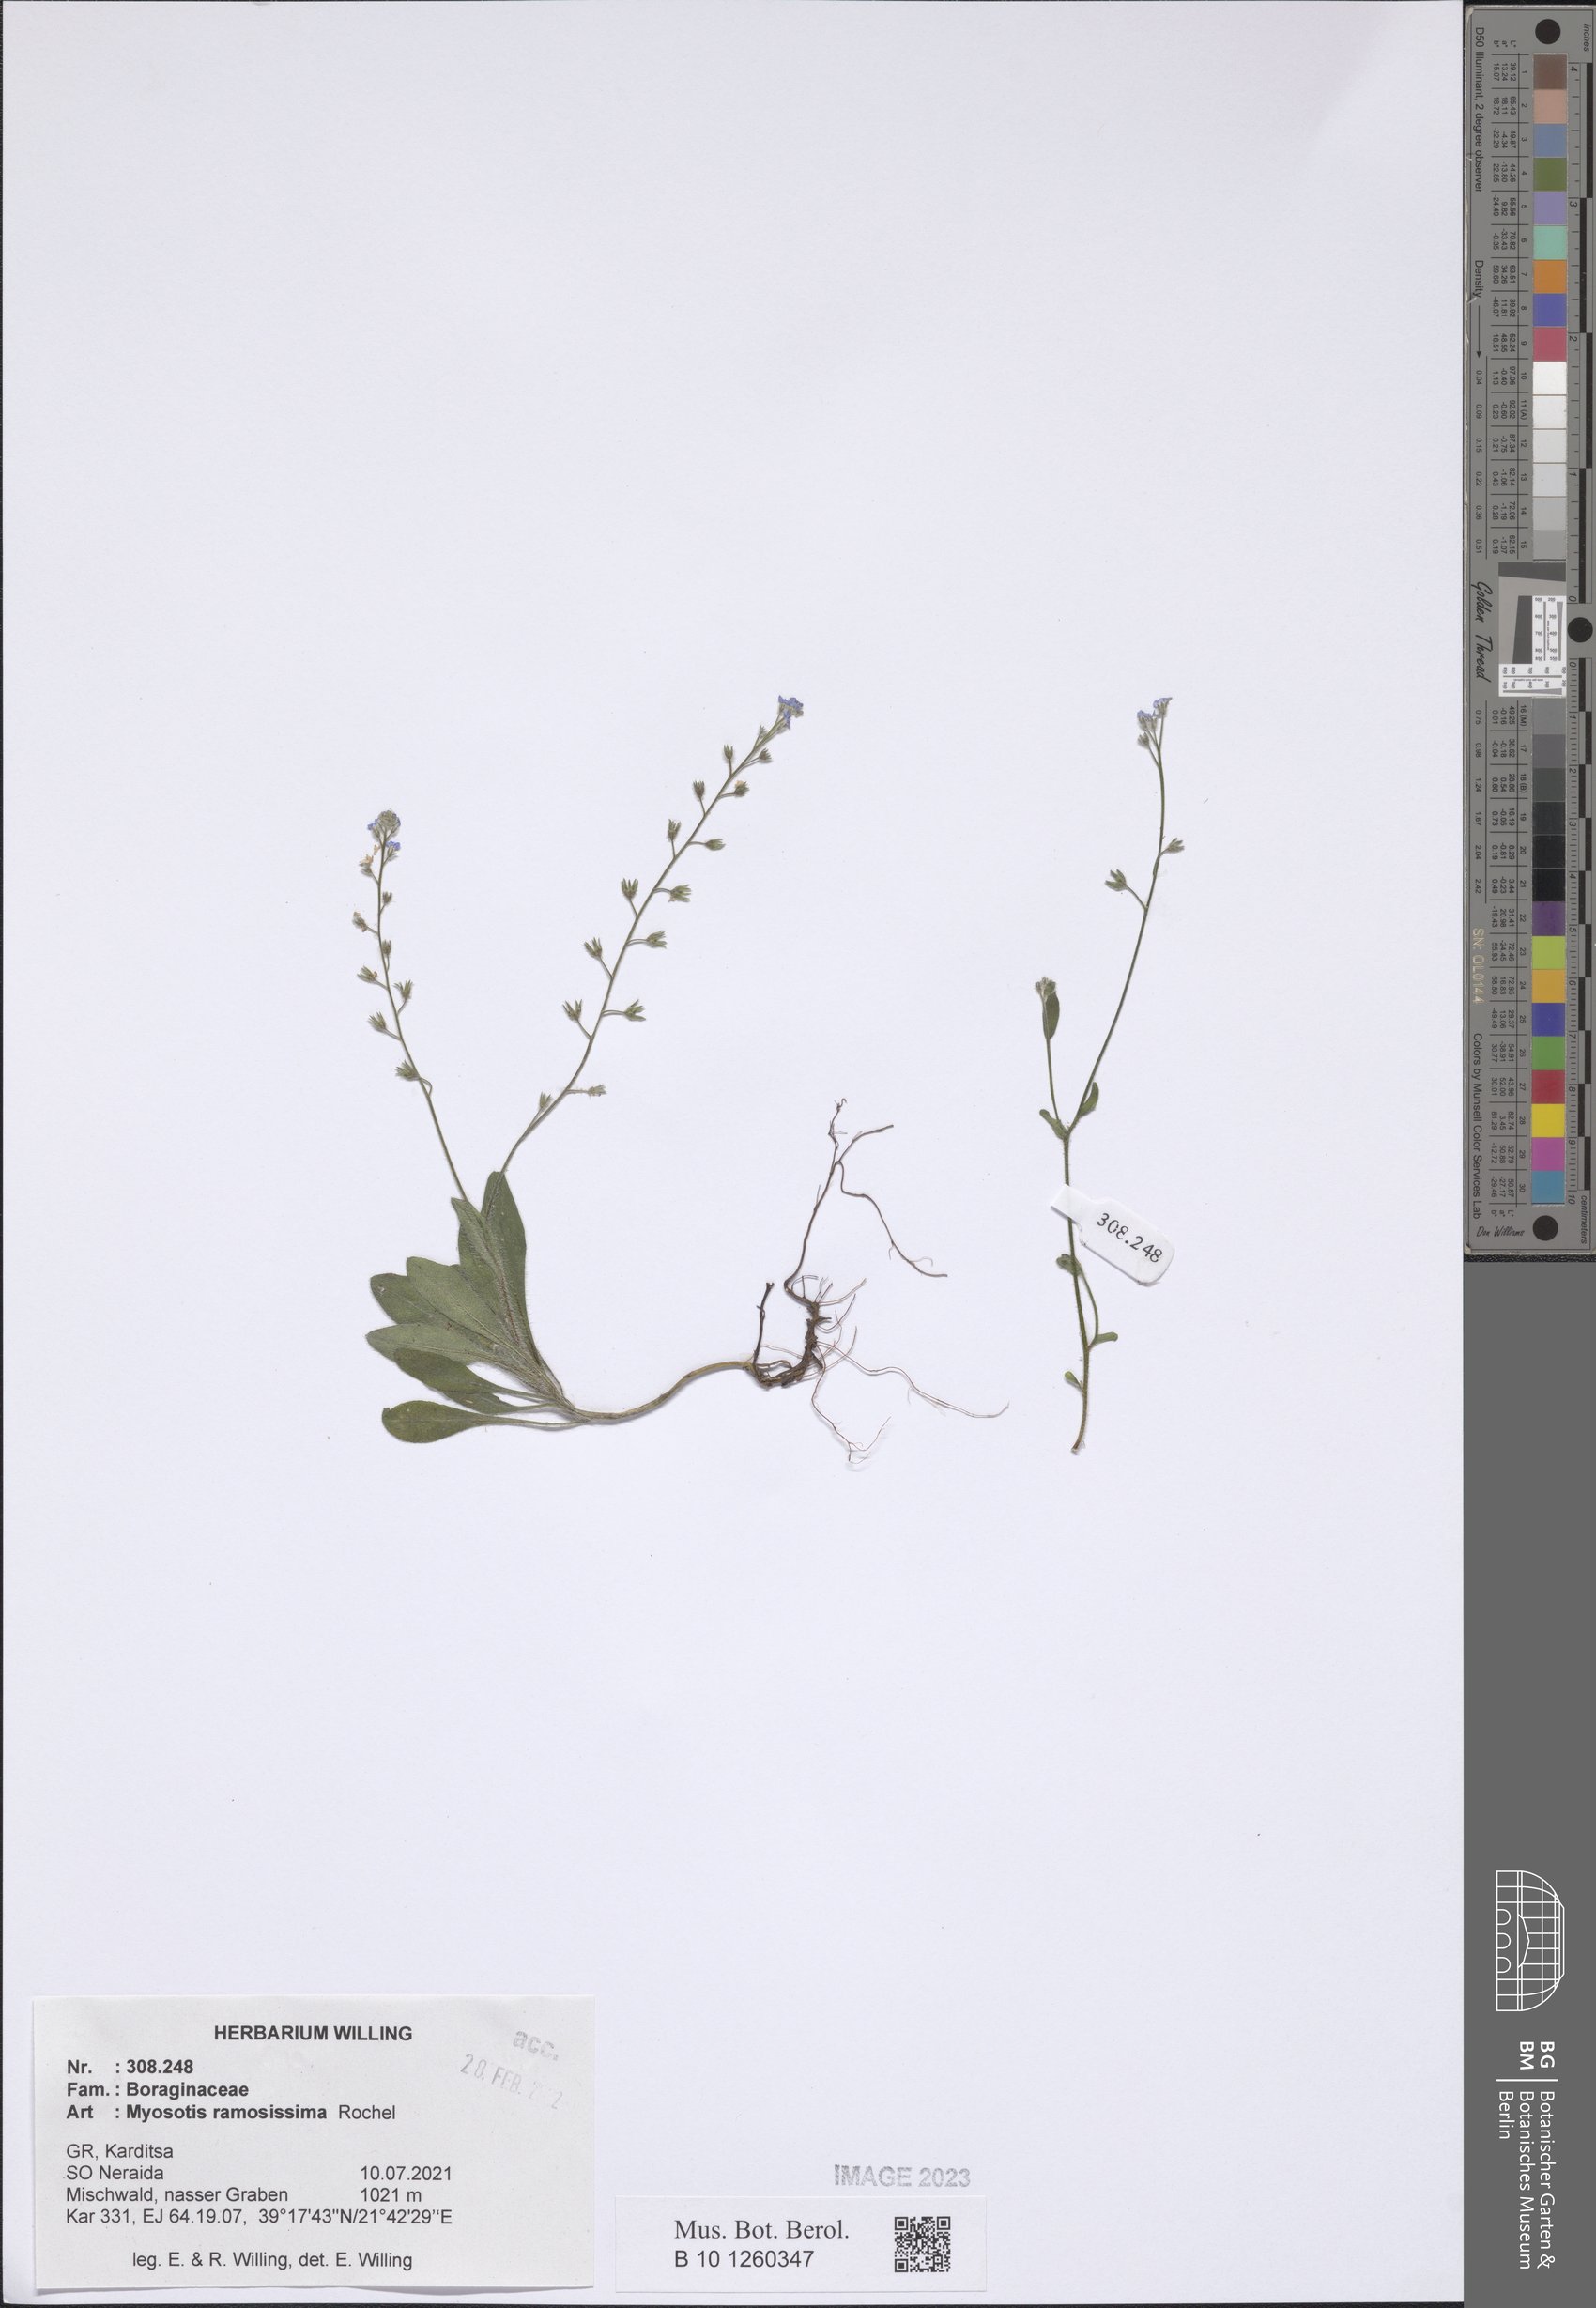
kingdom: Plantae
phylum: Tracheophyta
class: Magnoliopsida
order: Boraginales
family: Boraginaceae
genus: Myosotis
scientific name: Myosotis ramosissima
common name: Early forget-me-not
